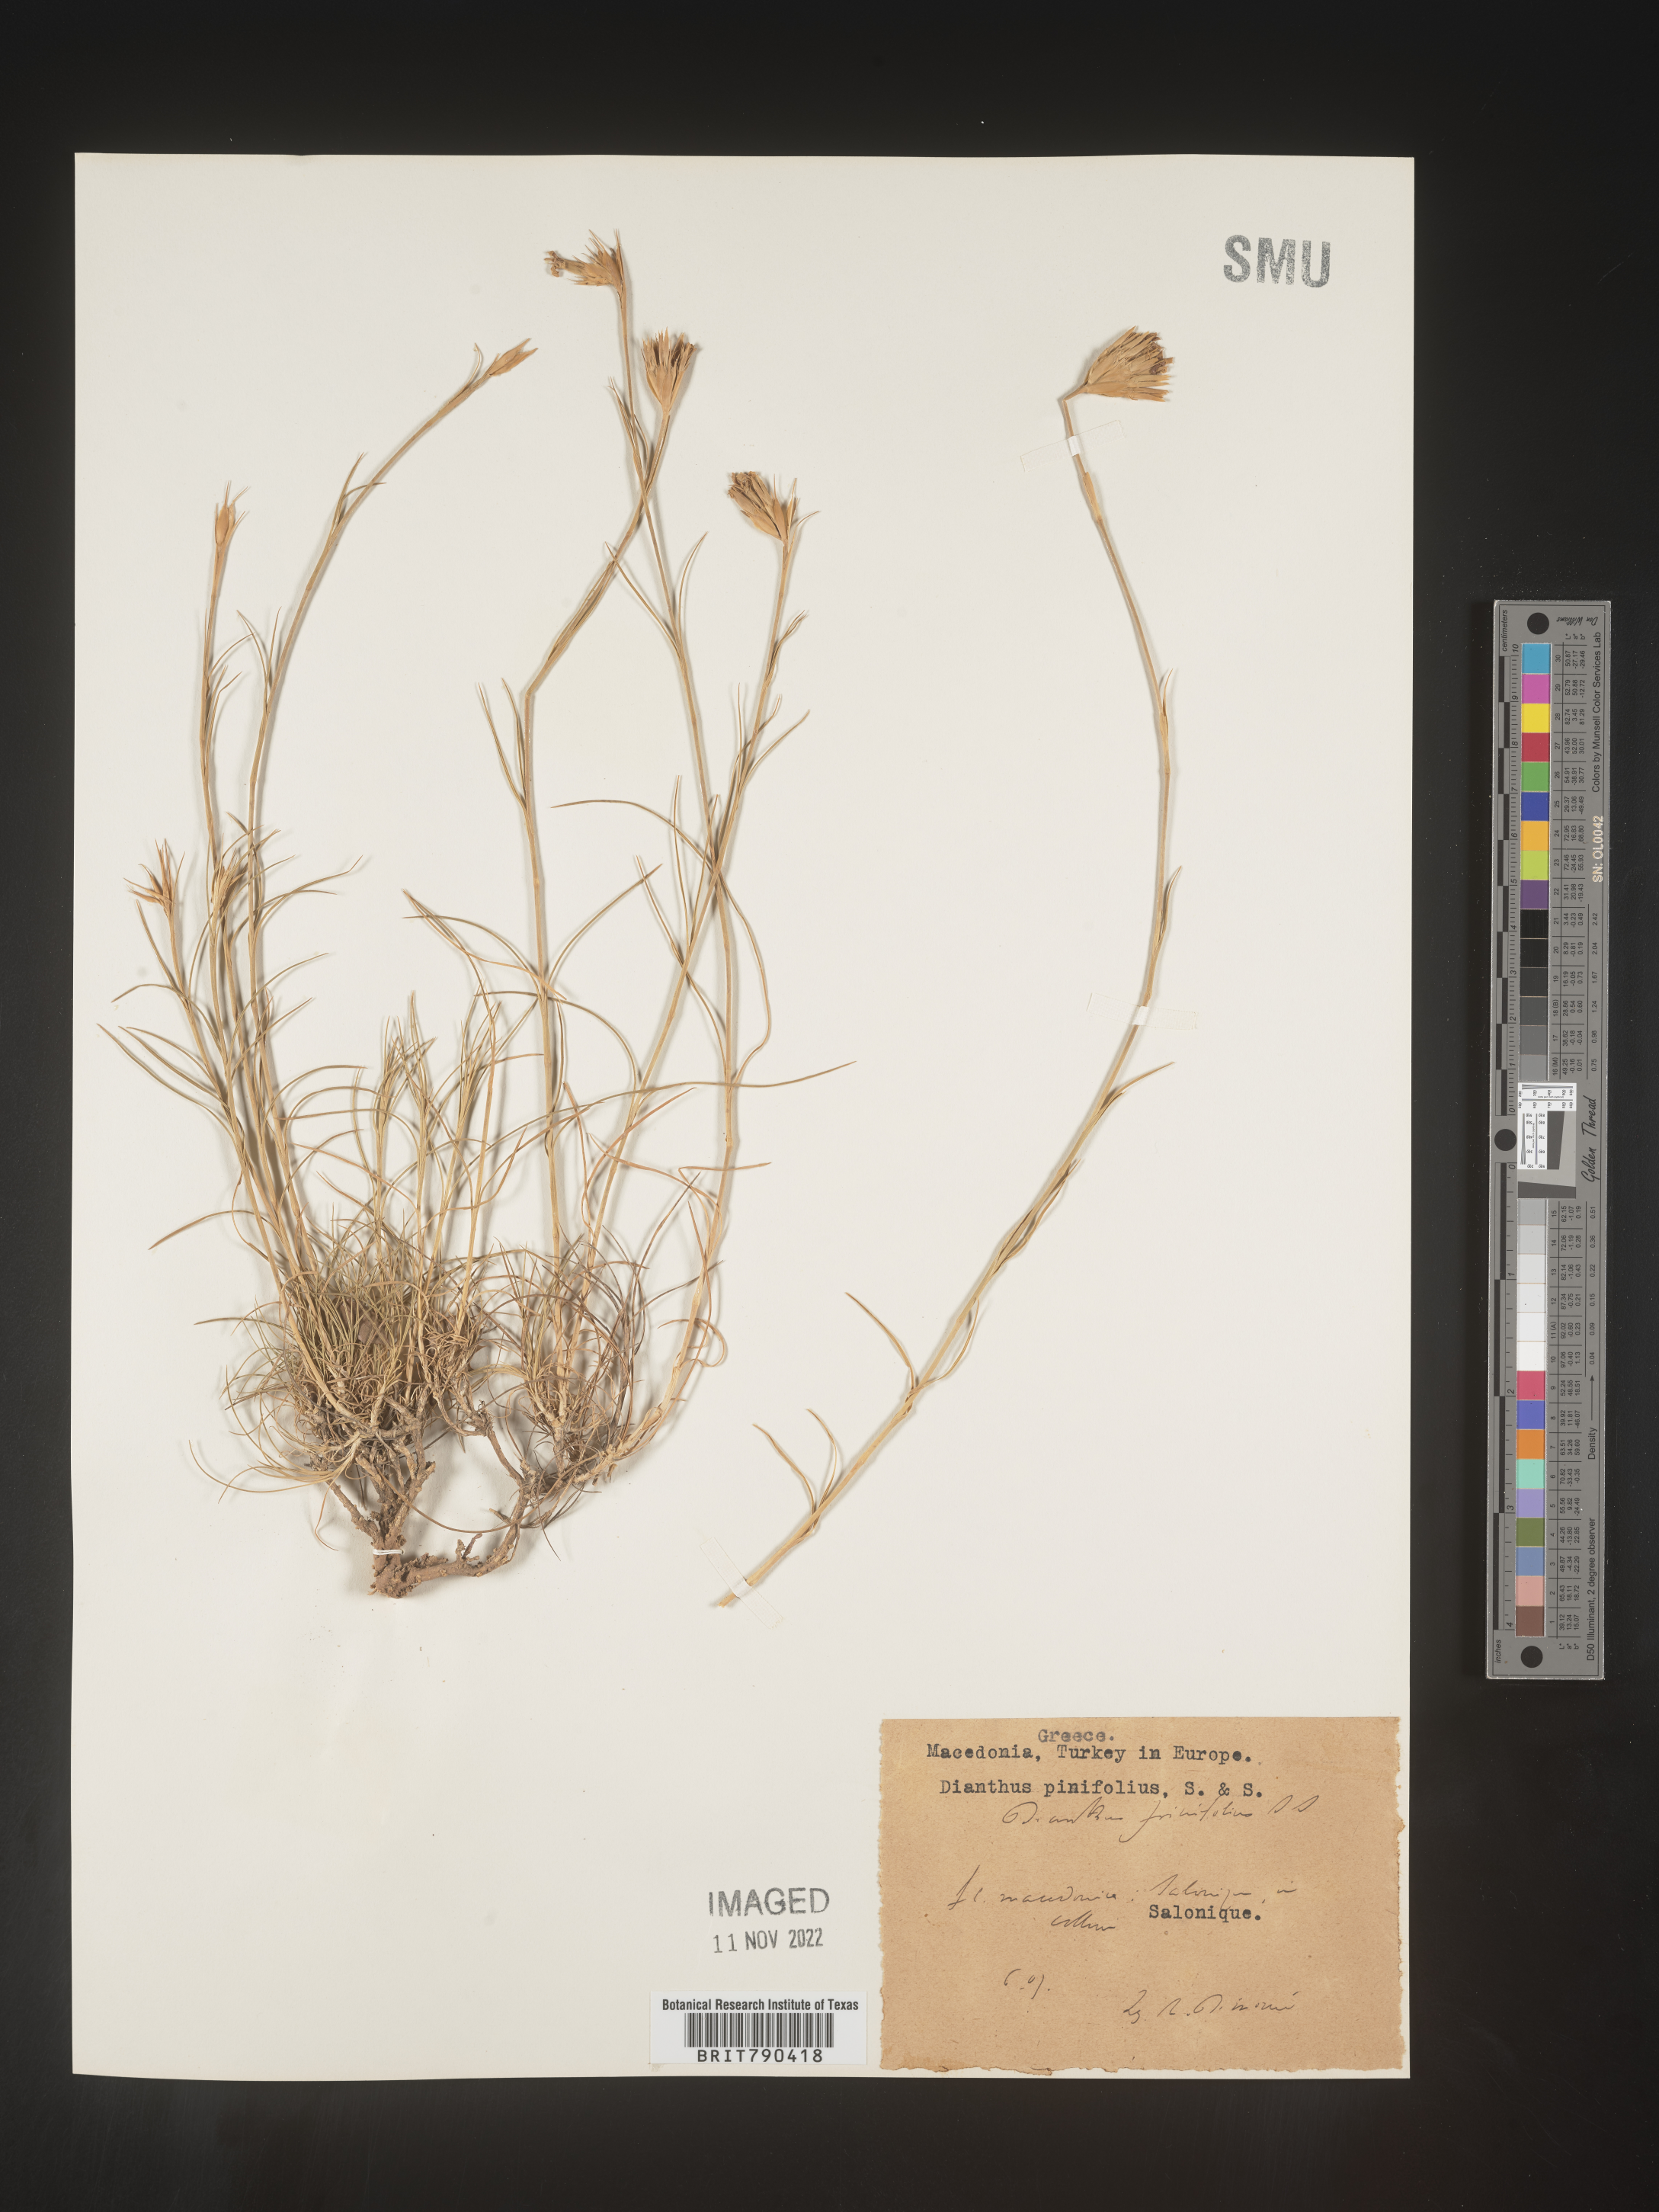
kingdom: Plantae
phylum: Tracheophyta
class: Magnoliopsida
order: Caryophyllales
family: Caryophyllaceae
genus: Dianthus
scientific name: Dianthus
